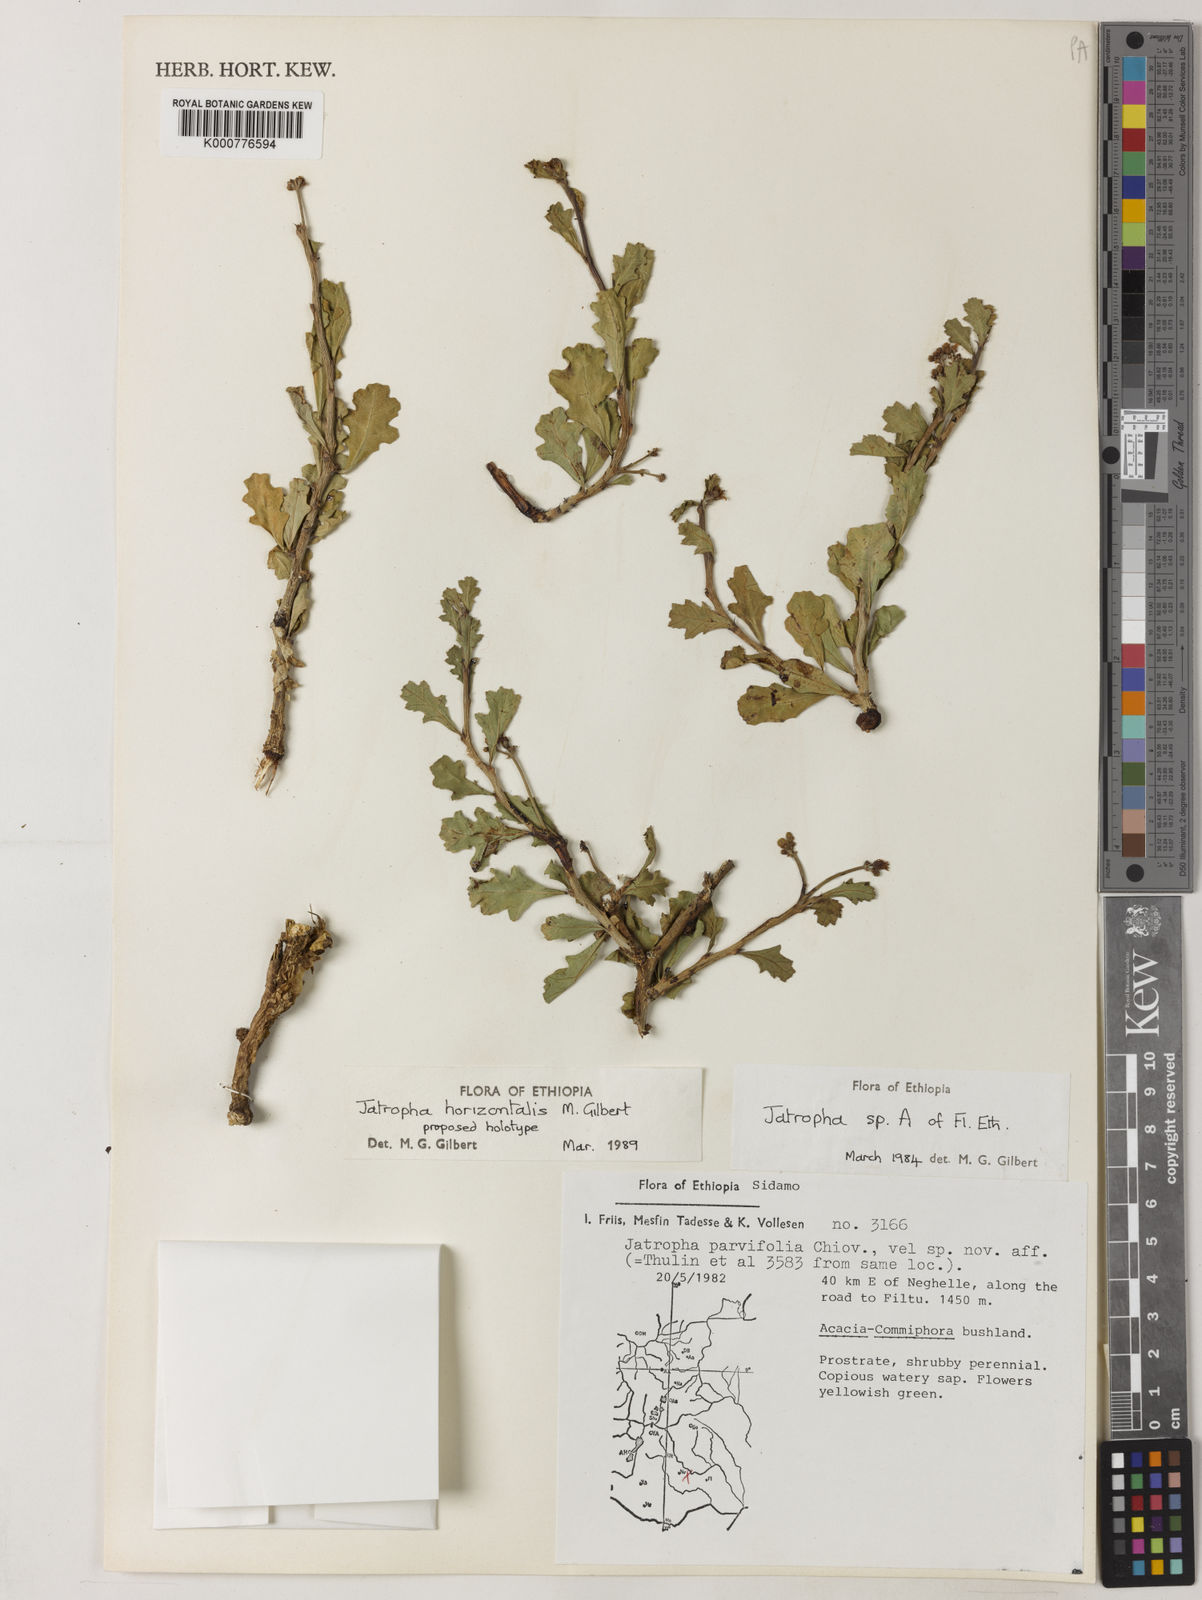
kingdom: Plantae
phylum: Tracheophyta
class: Magnoliopsida
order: Malpighiales
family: Euphorbiaceae
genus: Jatropha
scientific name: Jatropha horizontalis
